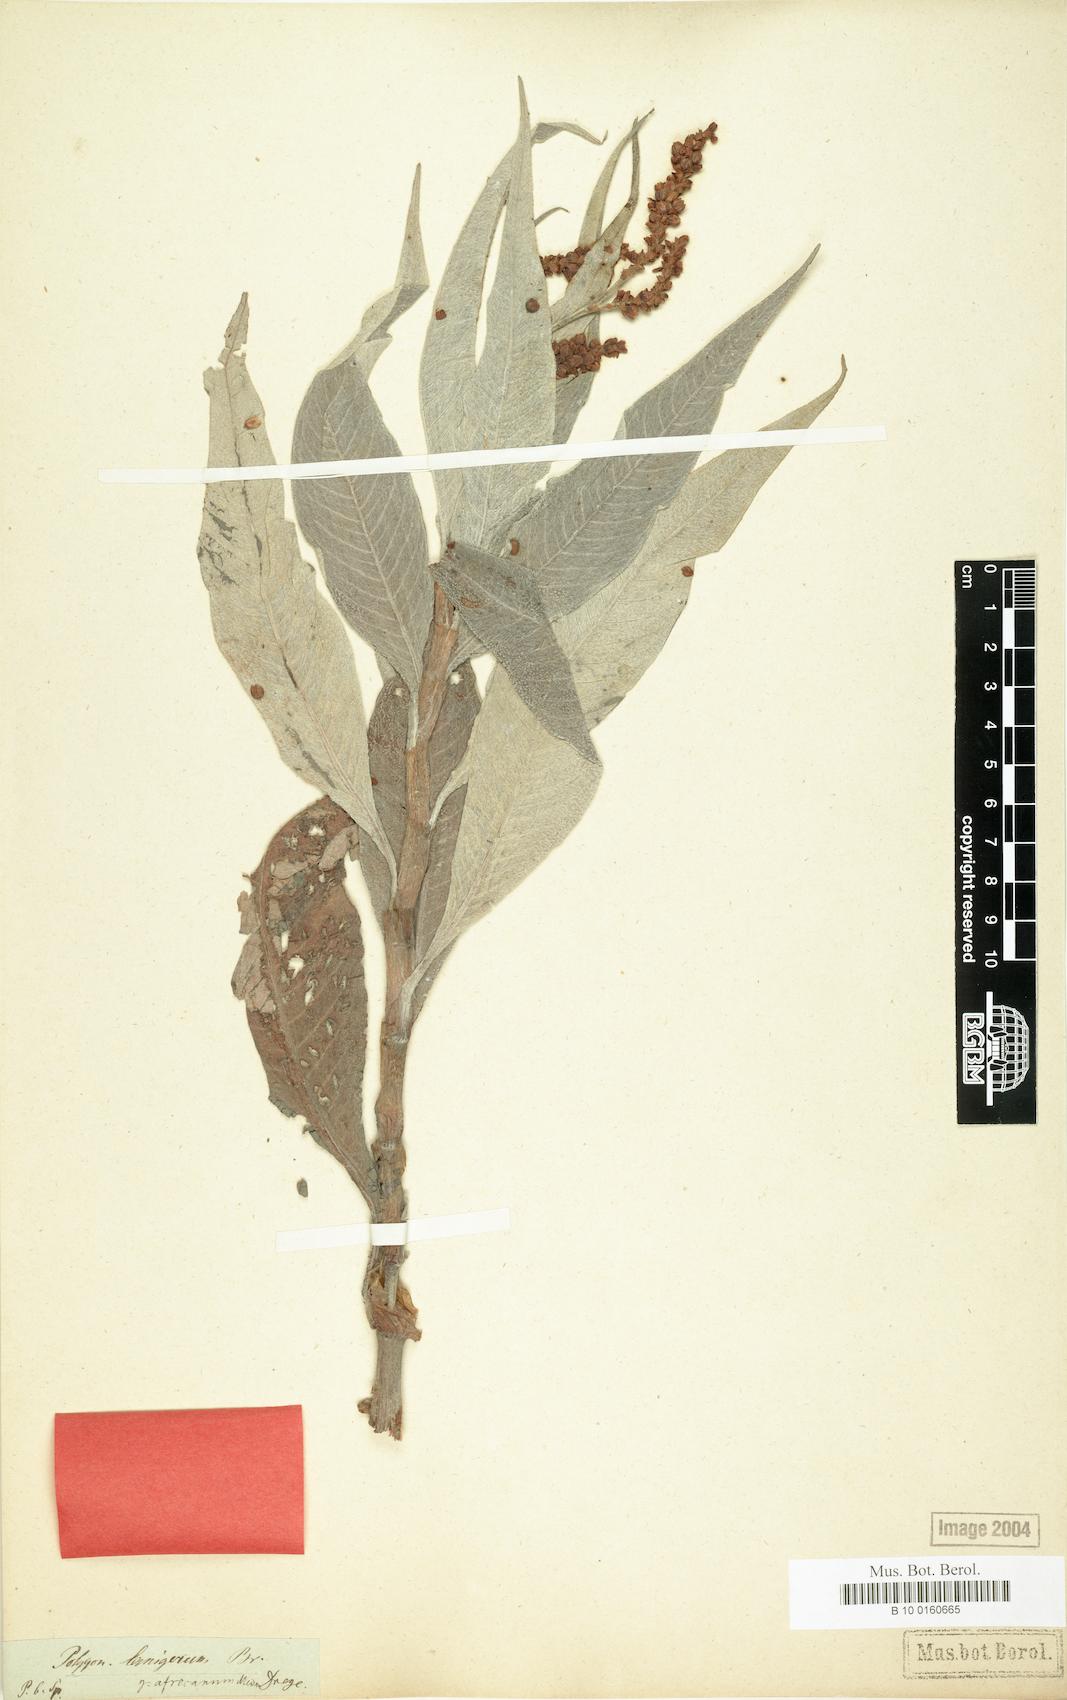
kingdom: Plantae
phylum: Tracheophyta
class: Magnoliopsida
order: Caryophyllales
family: Polygonaceae
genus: Persicaria
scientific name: Persicaria senegalensis
